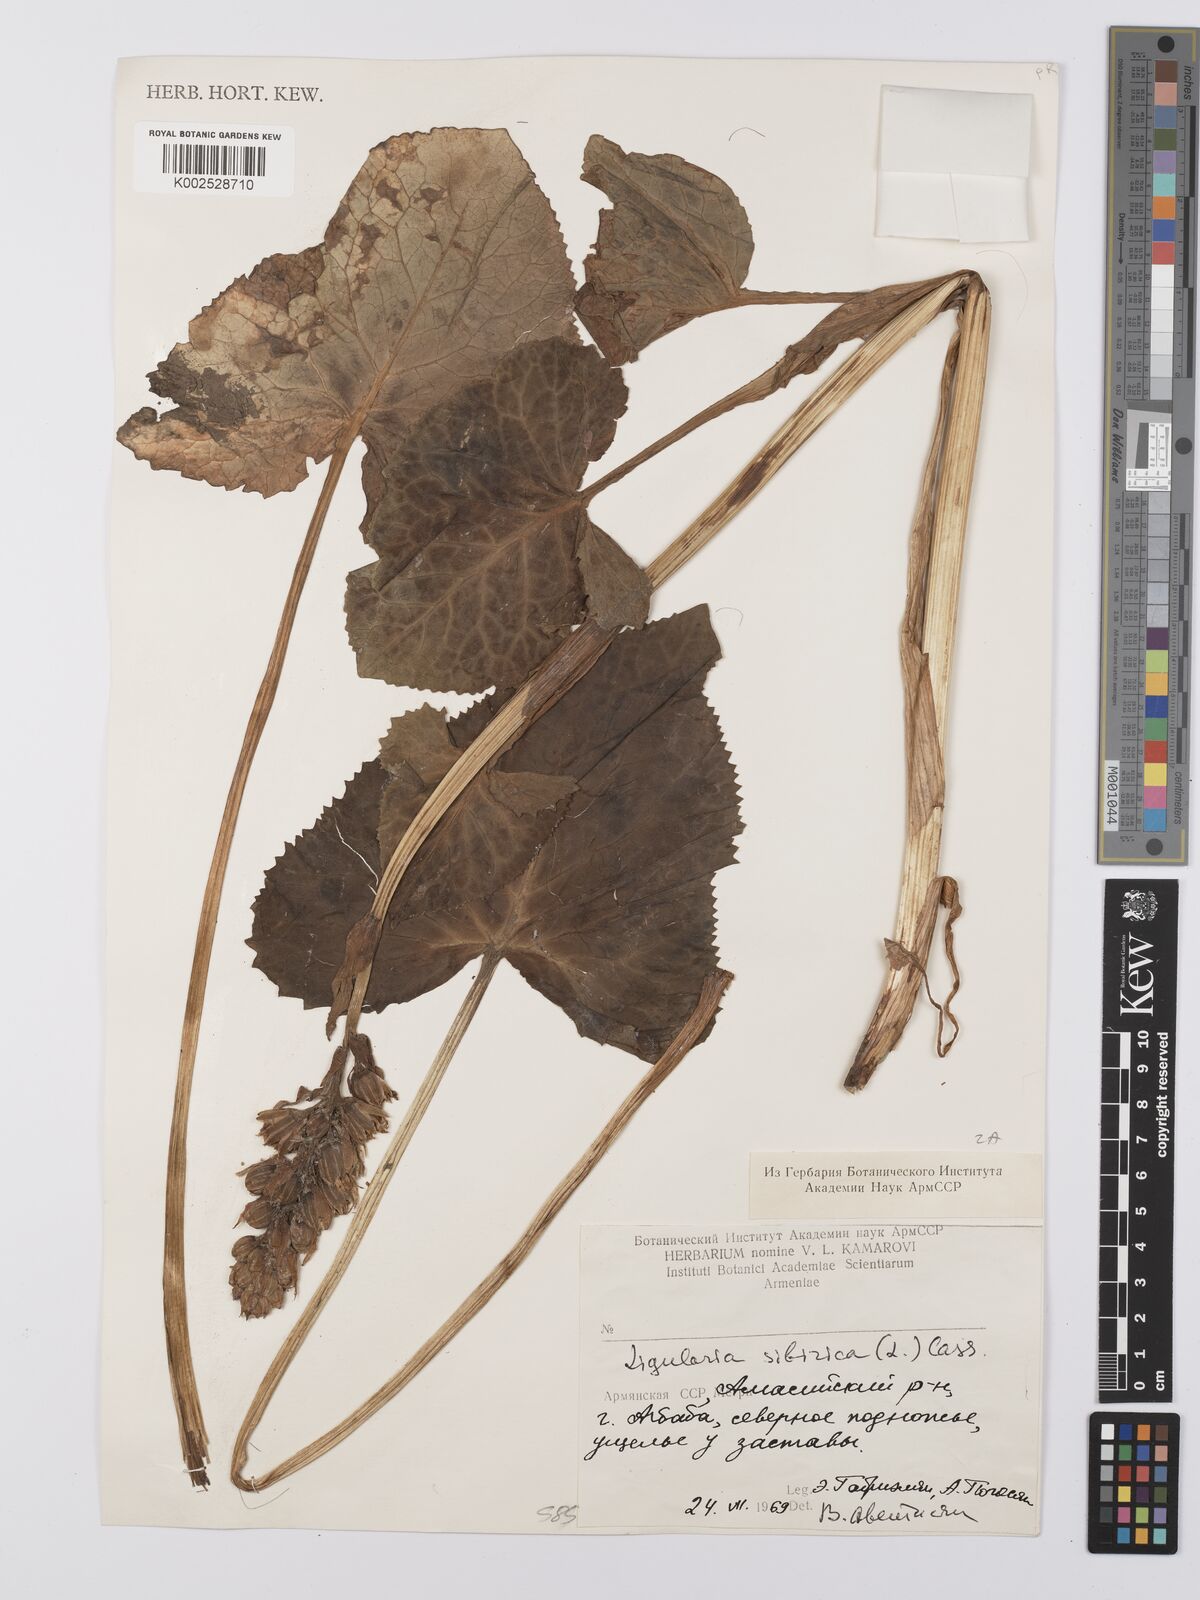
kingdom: Plantae
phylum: Tracheophyta
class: Magnoliopsida
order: Asterales
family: Asteraceae
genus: Ligularia
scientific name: Ligularia sibirica
